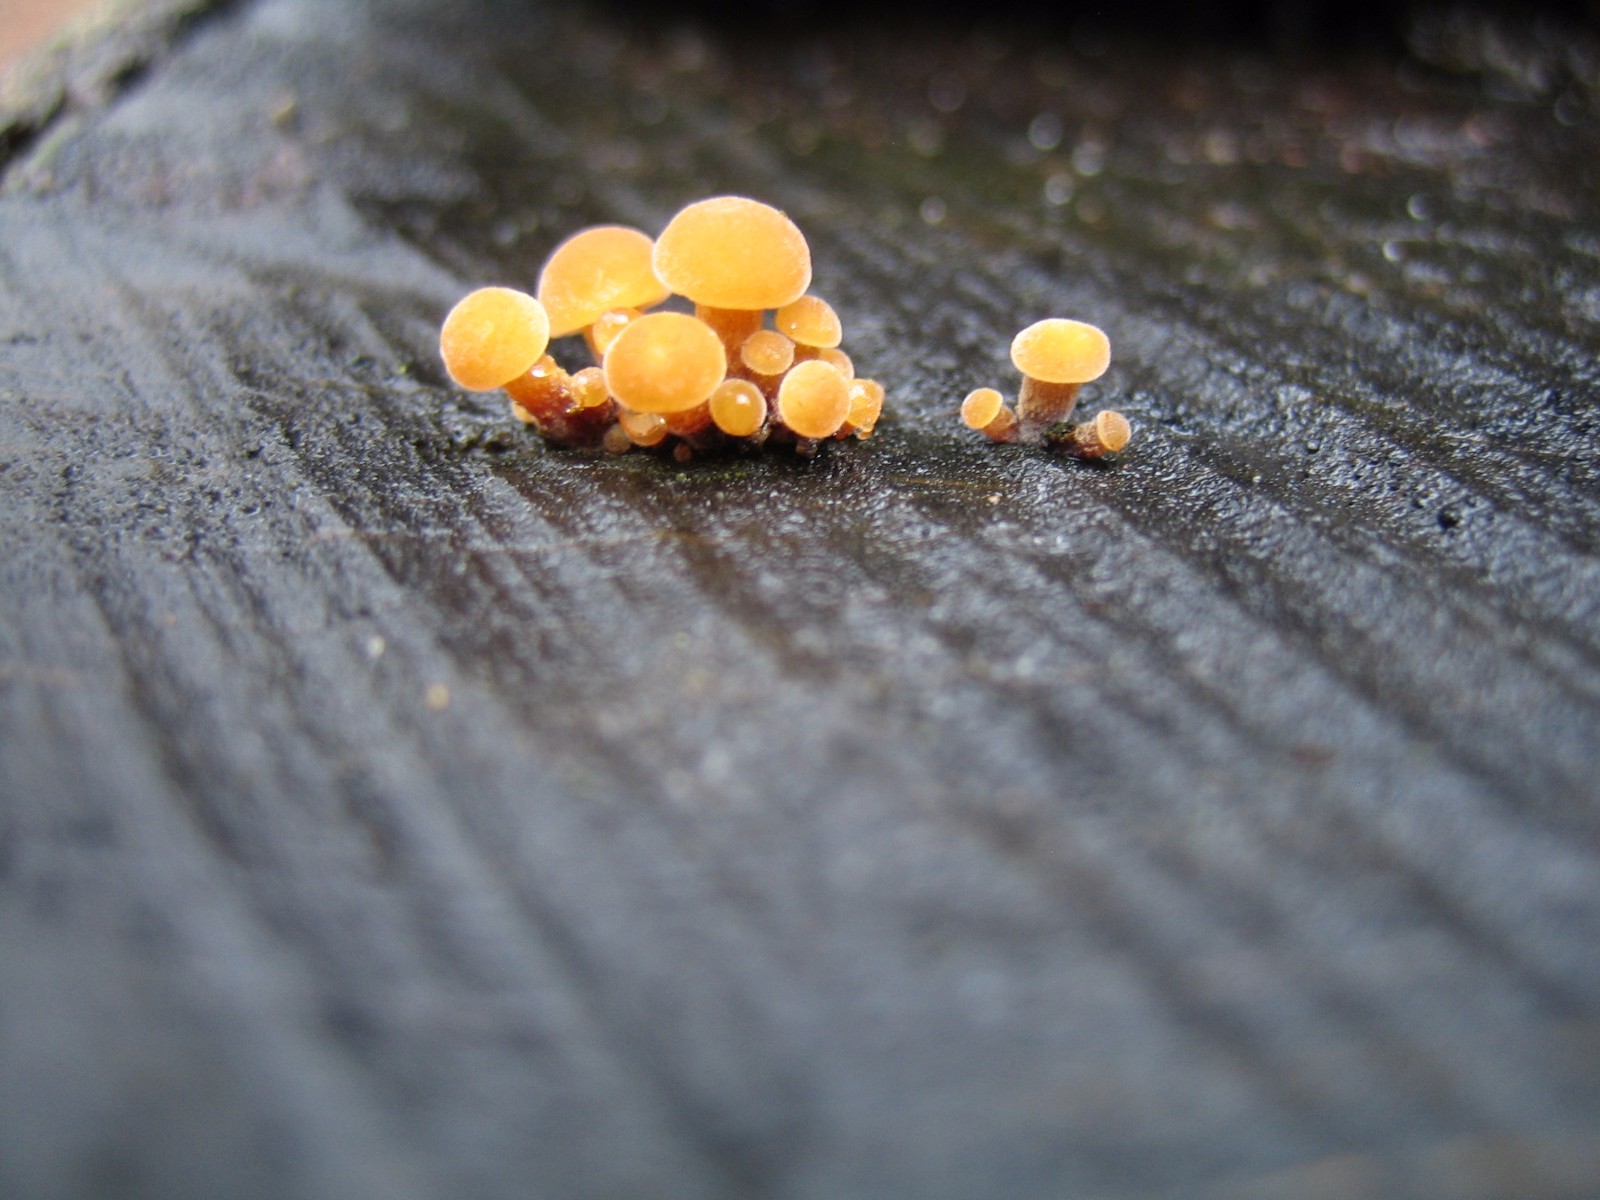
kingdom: Fungi
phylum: Basidiomycota
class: Agaricomycetes
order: Agaricales
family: Physalacriaceae
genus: Flammulina
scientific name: Flammulina velutipes
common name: gul fløjlsfod
